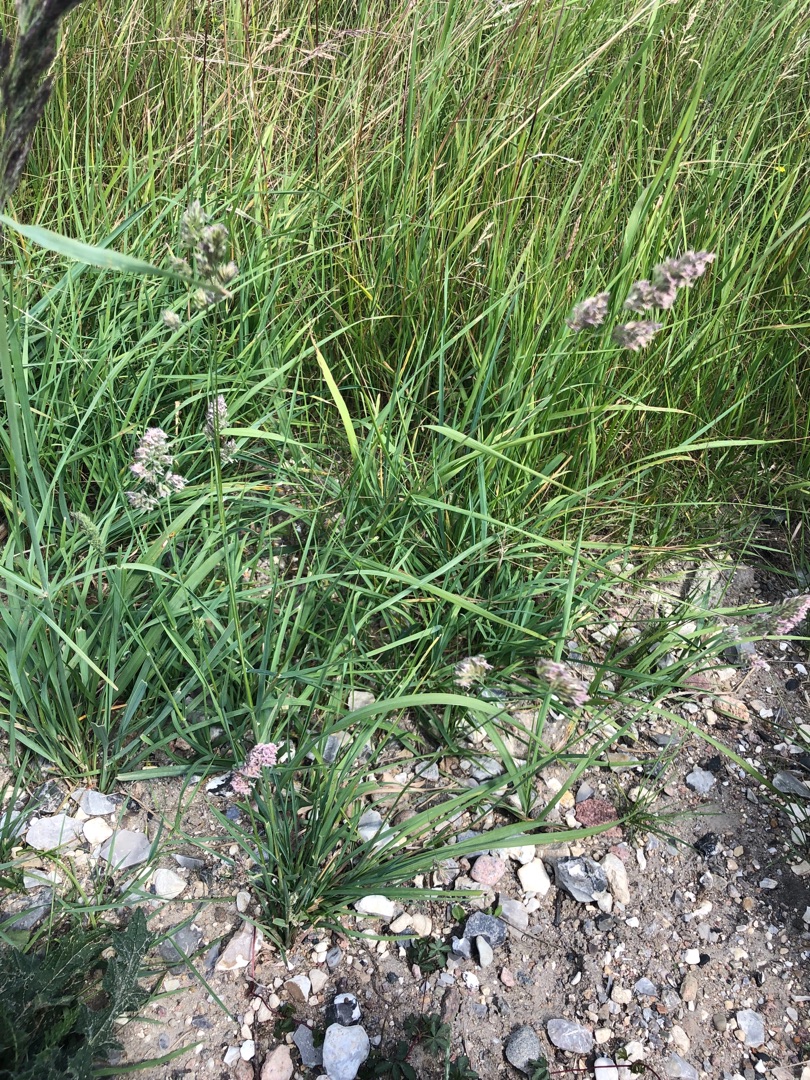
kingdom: Plantae
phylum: Tracheophyta
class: Liliopsida
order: Poales
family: Poaceae
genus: Dactylis
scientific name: Dactylis glomerata
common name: Almindelig hundegræs
